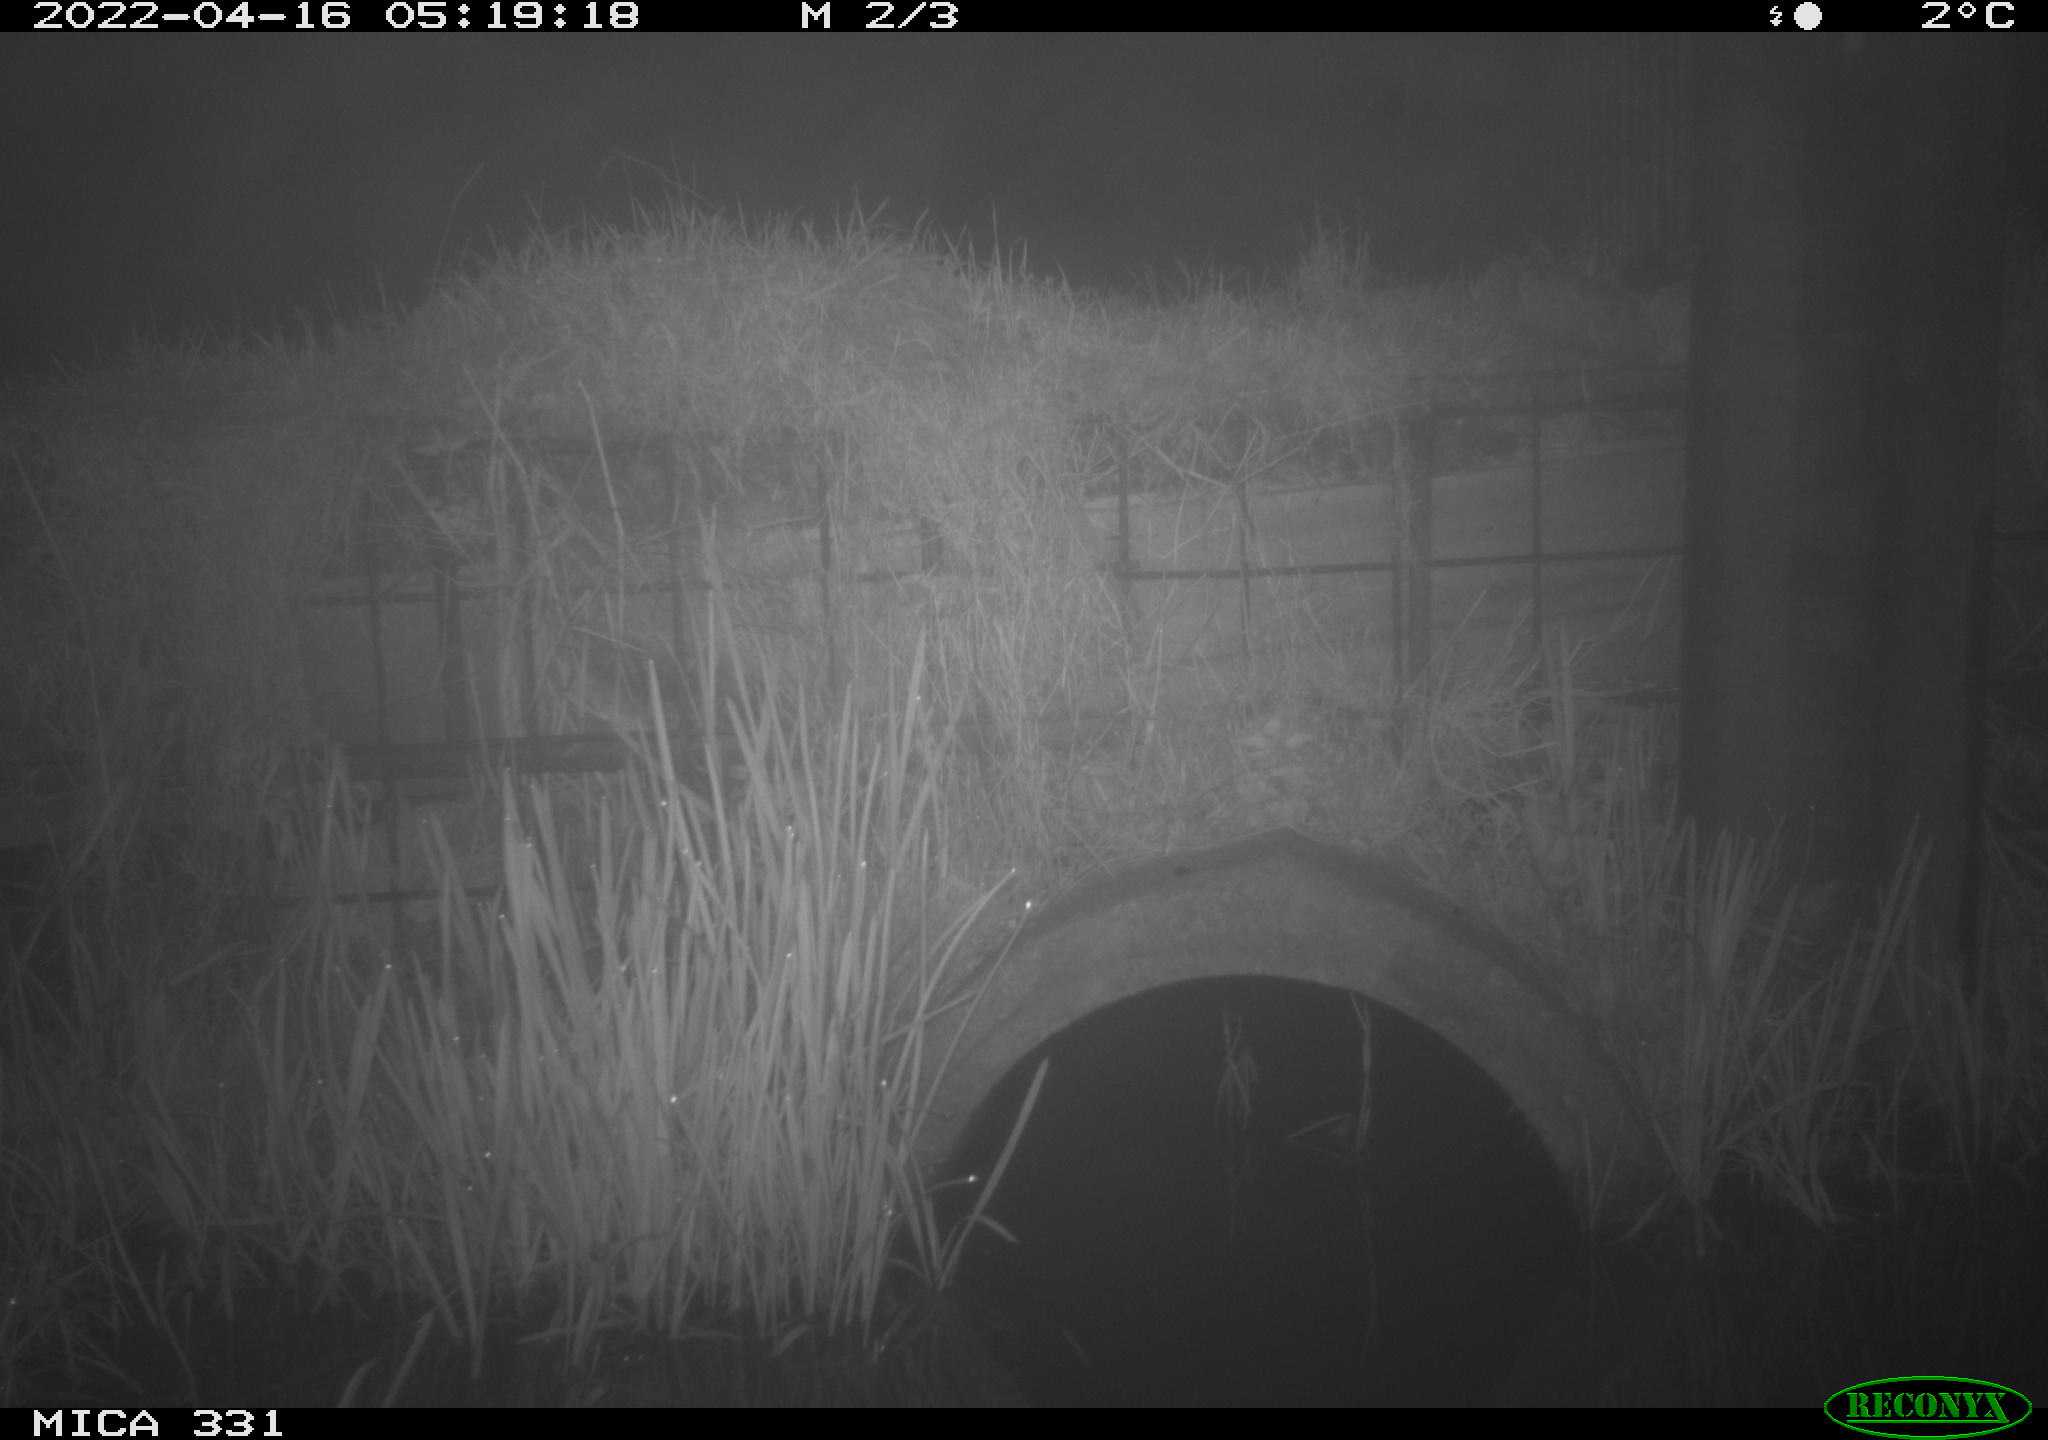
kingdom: Animalia
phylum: Chordata
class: Mammalia
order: Rodentia
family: Muridae
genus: Rattus
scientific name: Rattus norvegicus
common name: Brown rat
